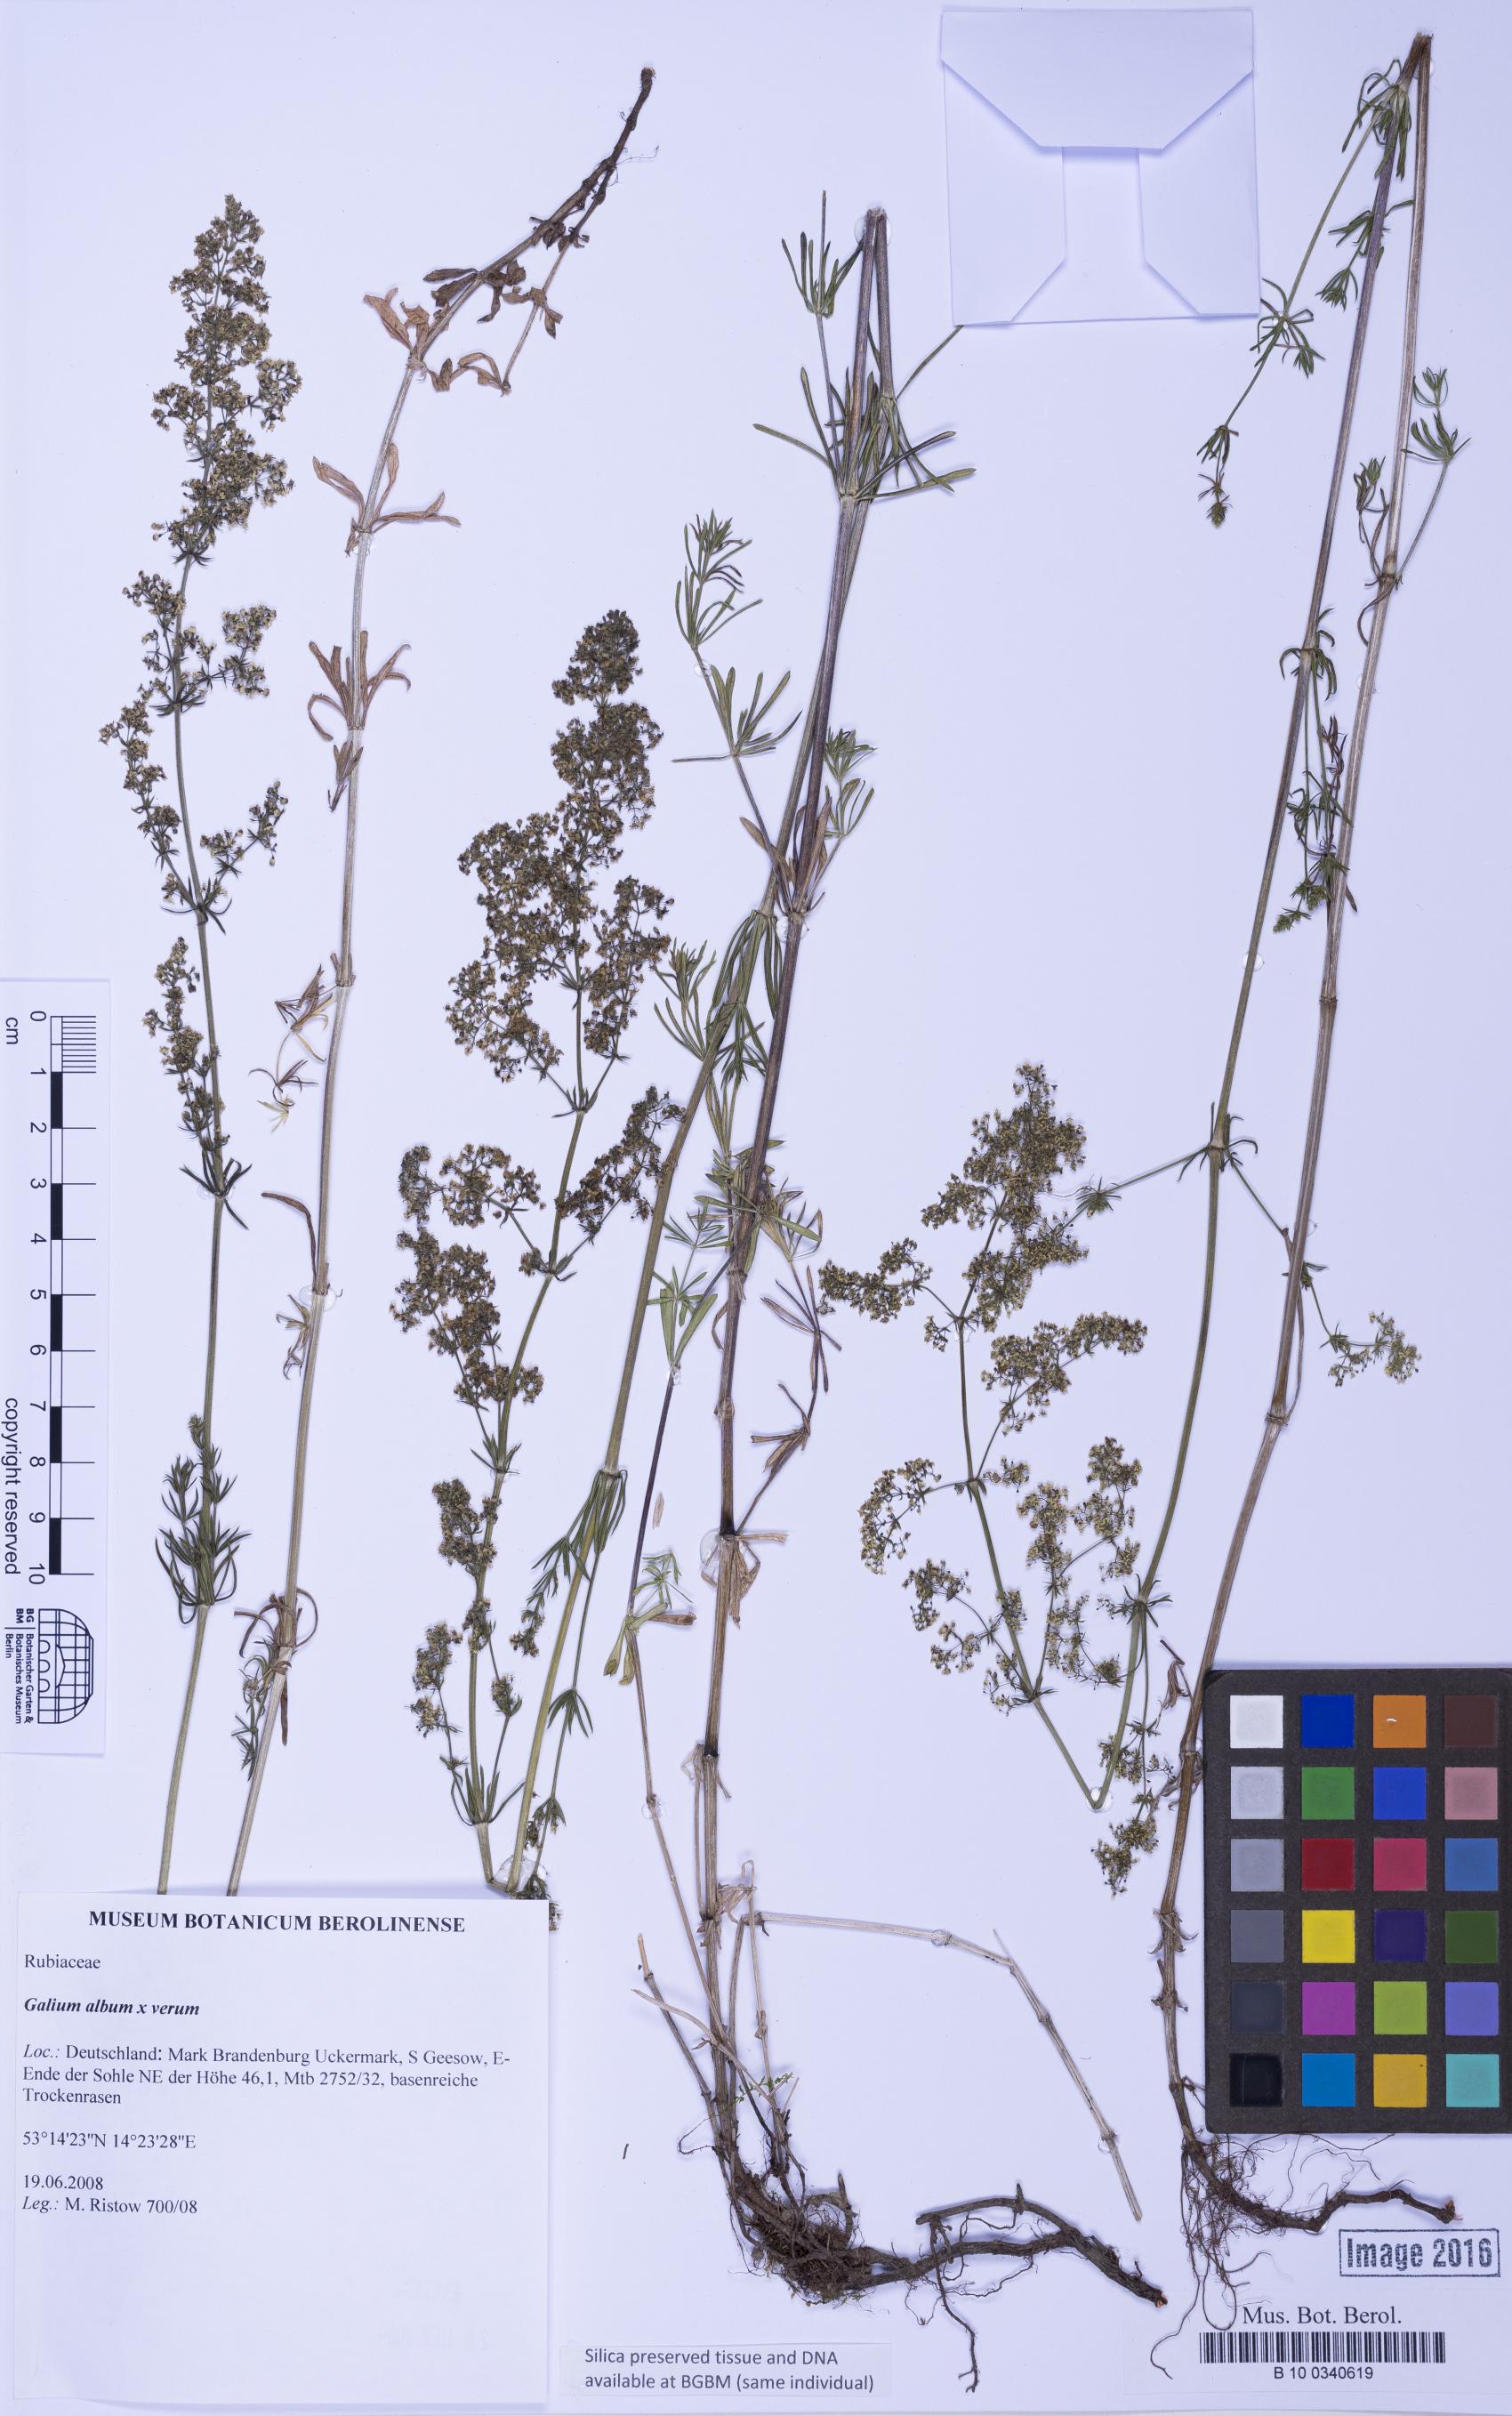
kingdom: Plantae
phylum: Tracheophyta
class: Magnoliopsida
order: Gentianales
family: Rubiaceae
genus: Galium
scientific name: Galium
